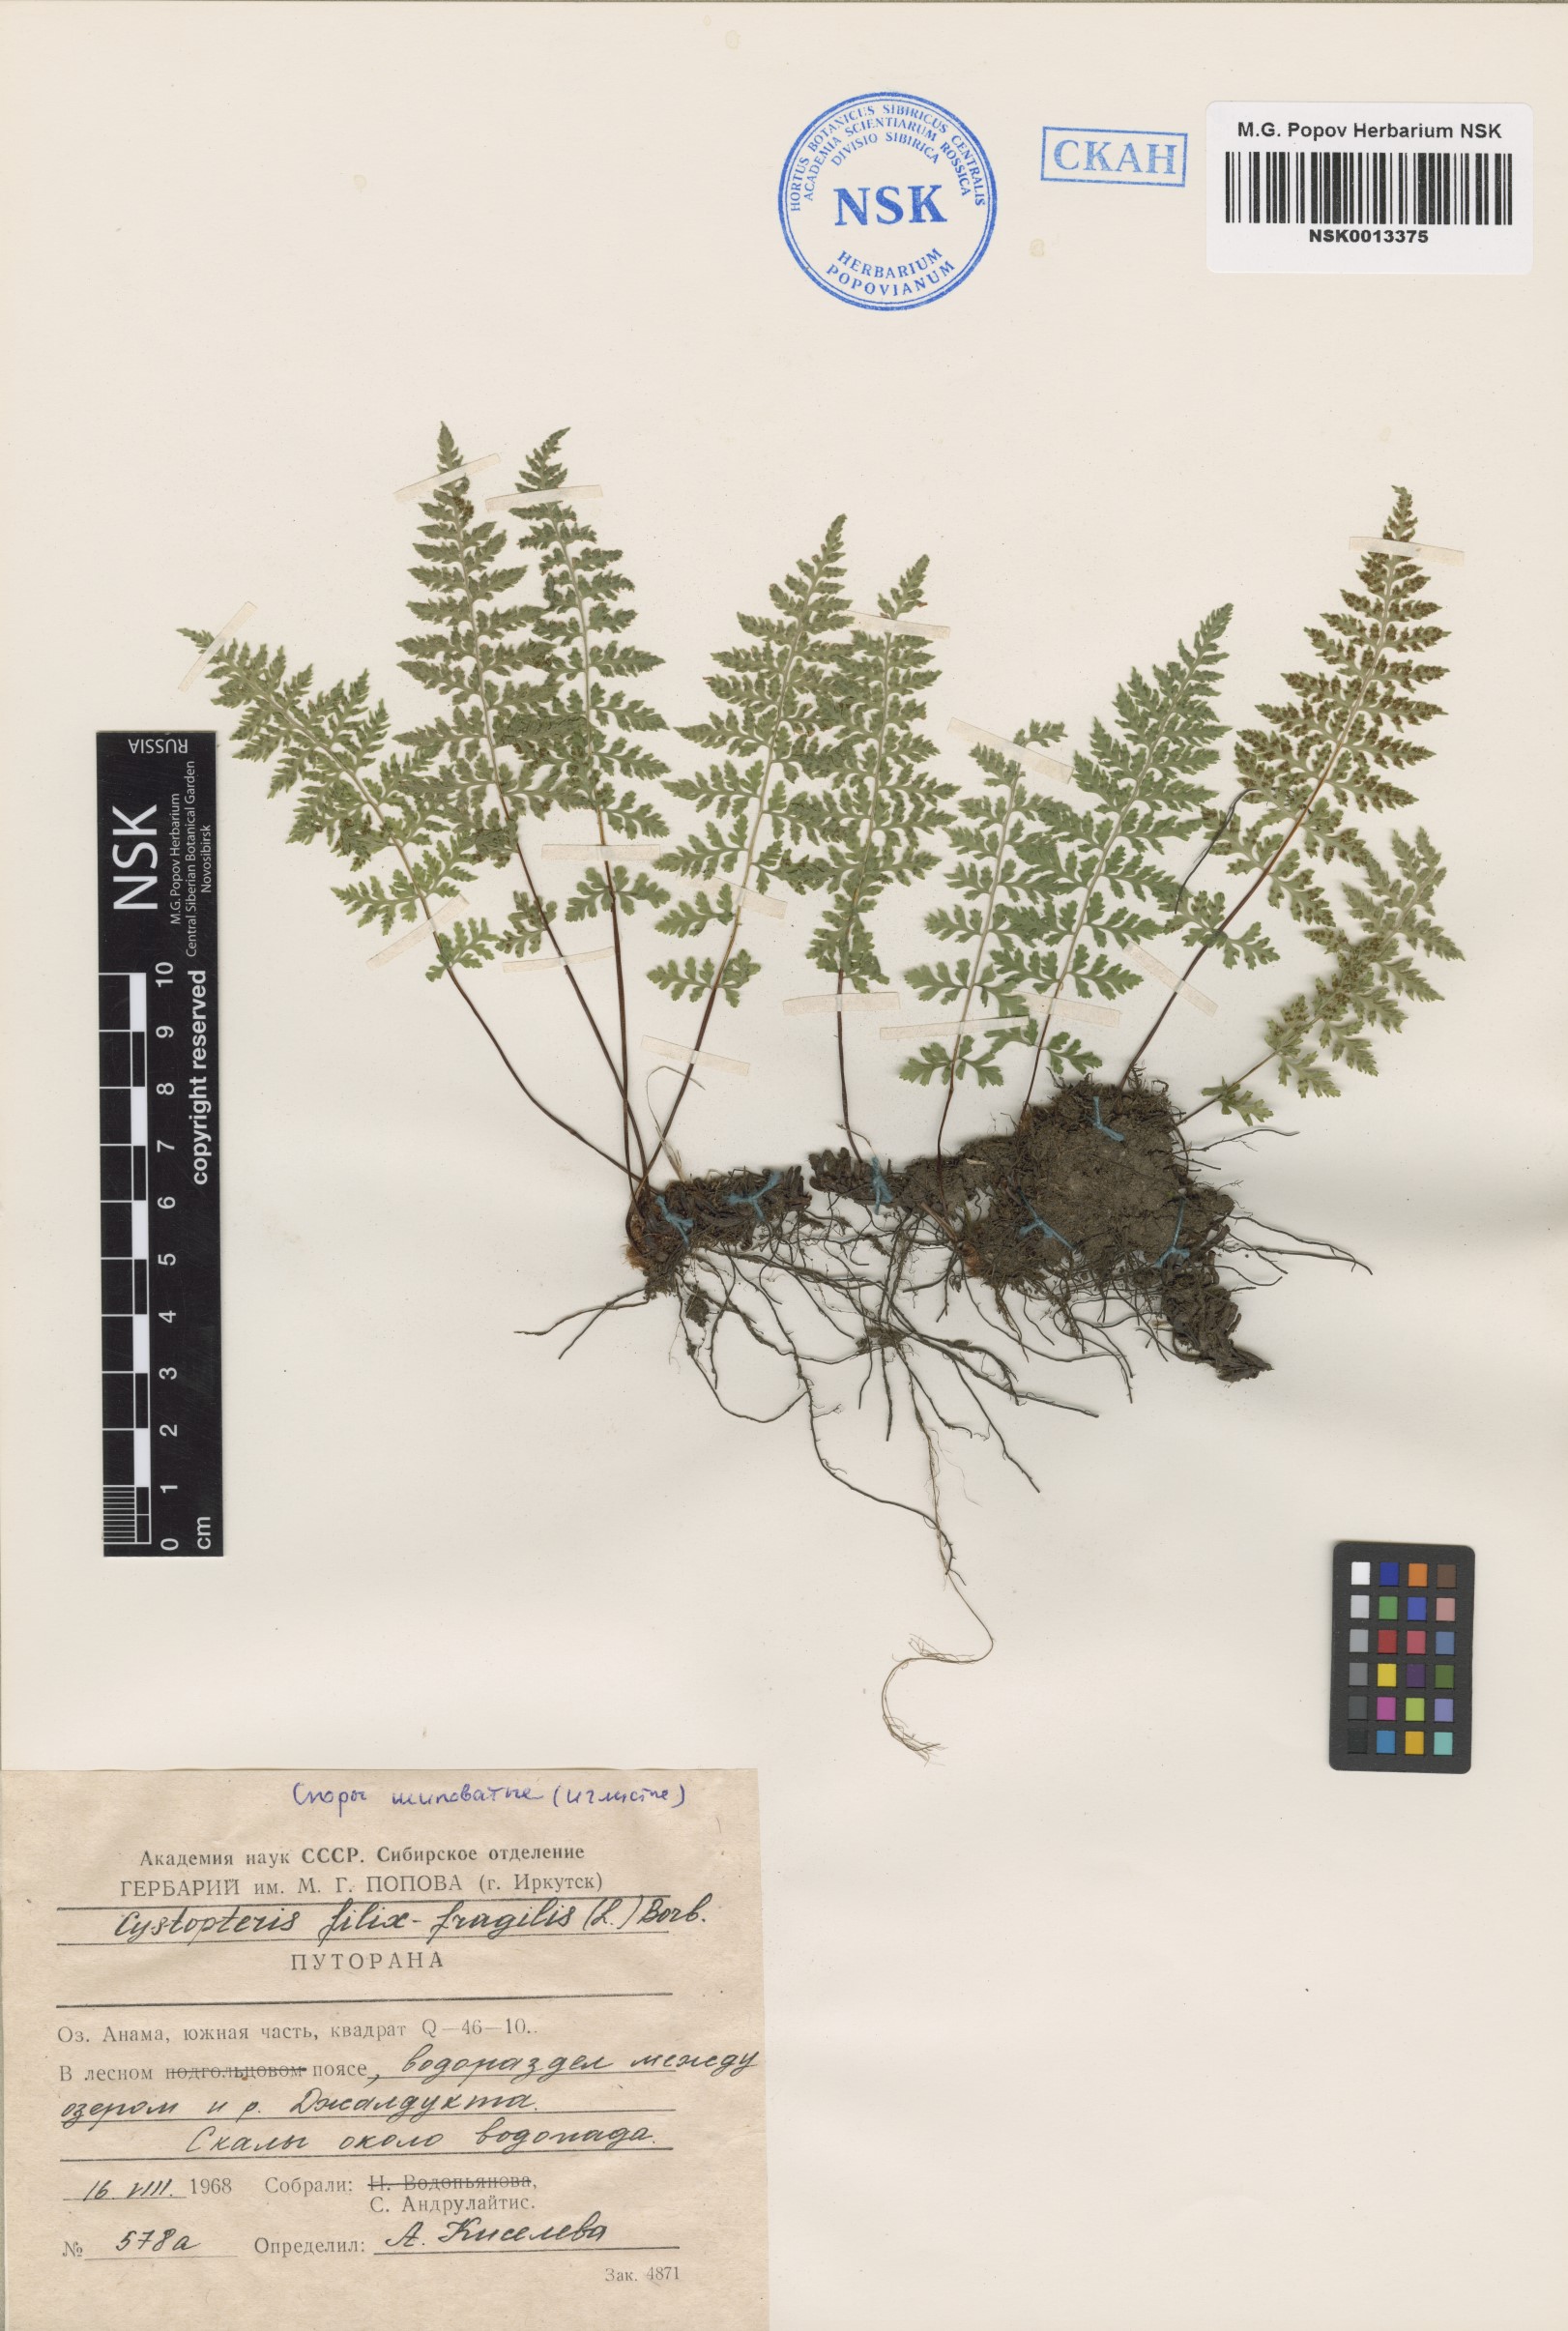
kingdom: Plantae
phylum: Tracheophyta
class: Polypodiopsida
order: Polypodiales
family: Cystopteridaceae
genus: Cystopteris
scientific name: Cystopteris fragilis
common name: Brittle bladder fern
